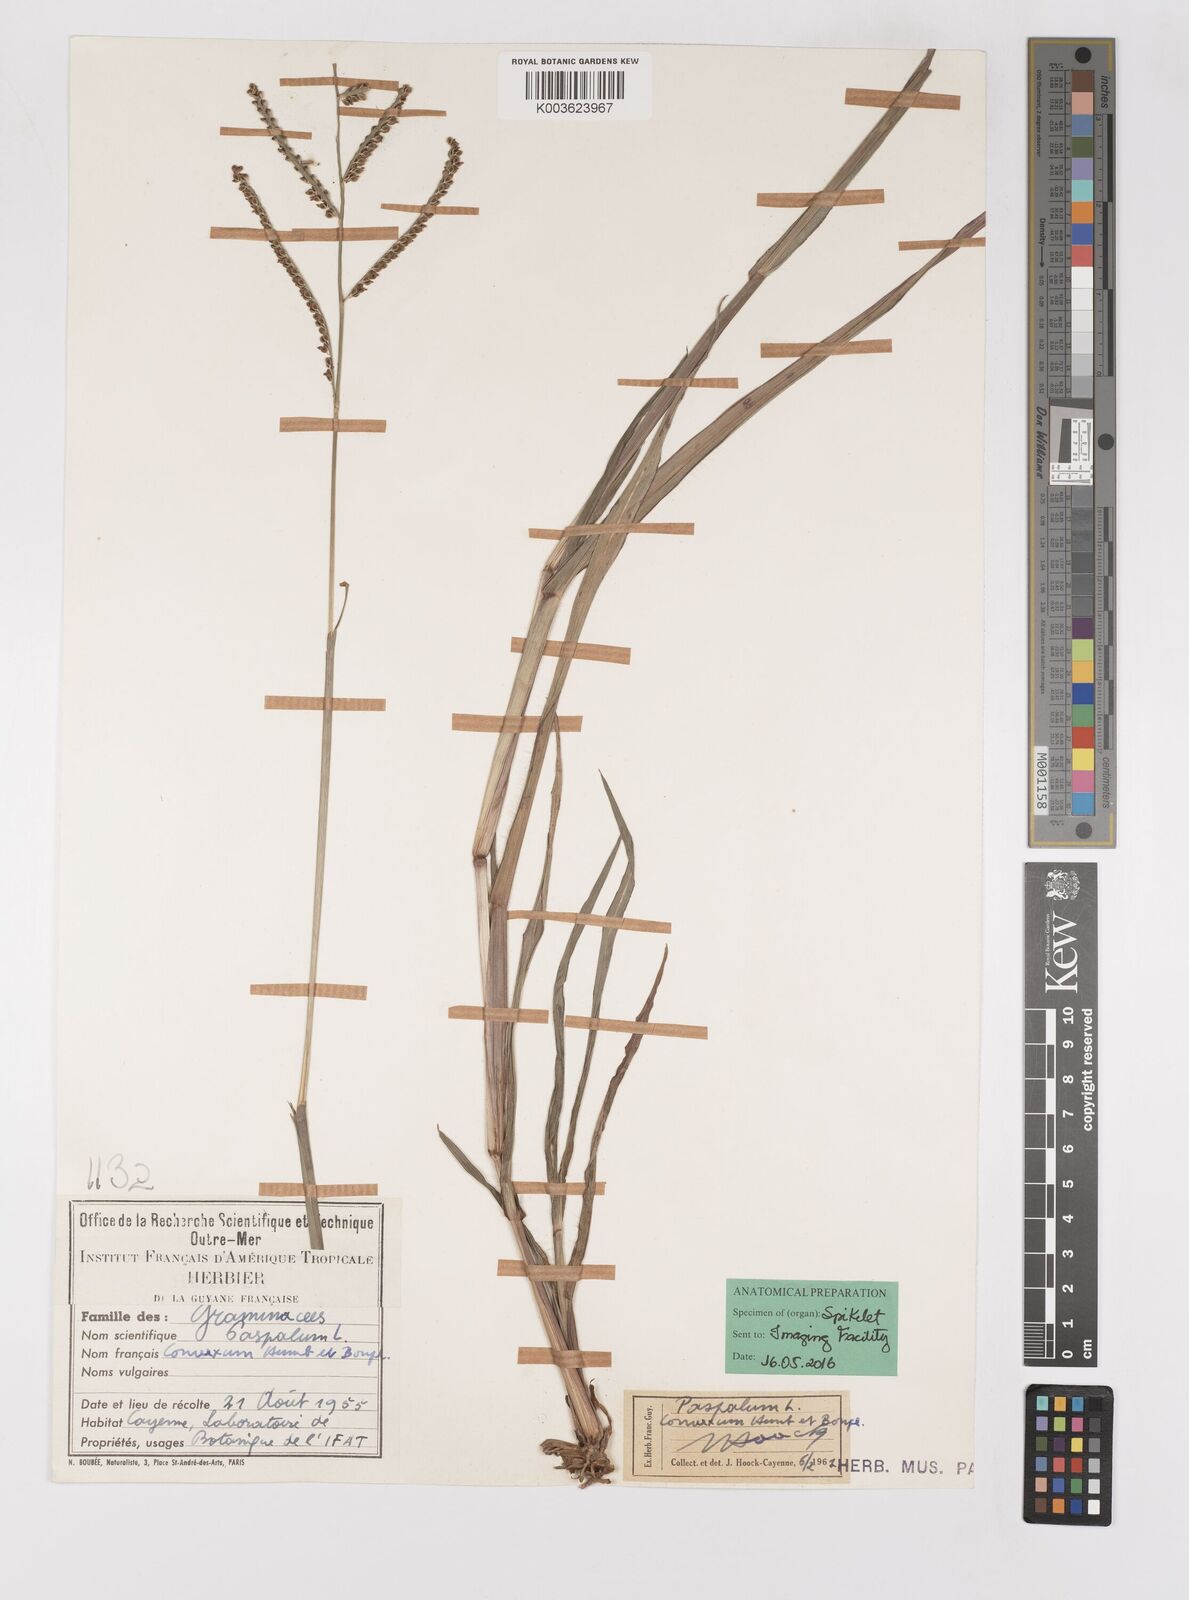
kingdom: Plantae
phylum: Tracheophyta
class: Liliopsida
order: Poales
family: Poaceae
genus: Paspalum
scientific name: Paspalum convexum
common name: Latin american crowngrass
